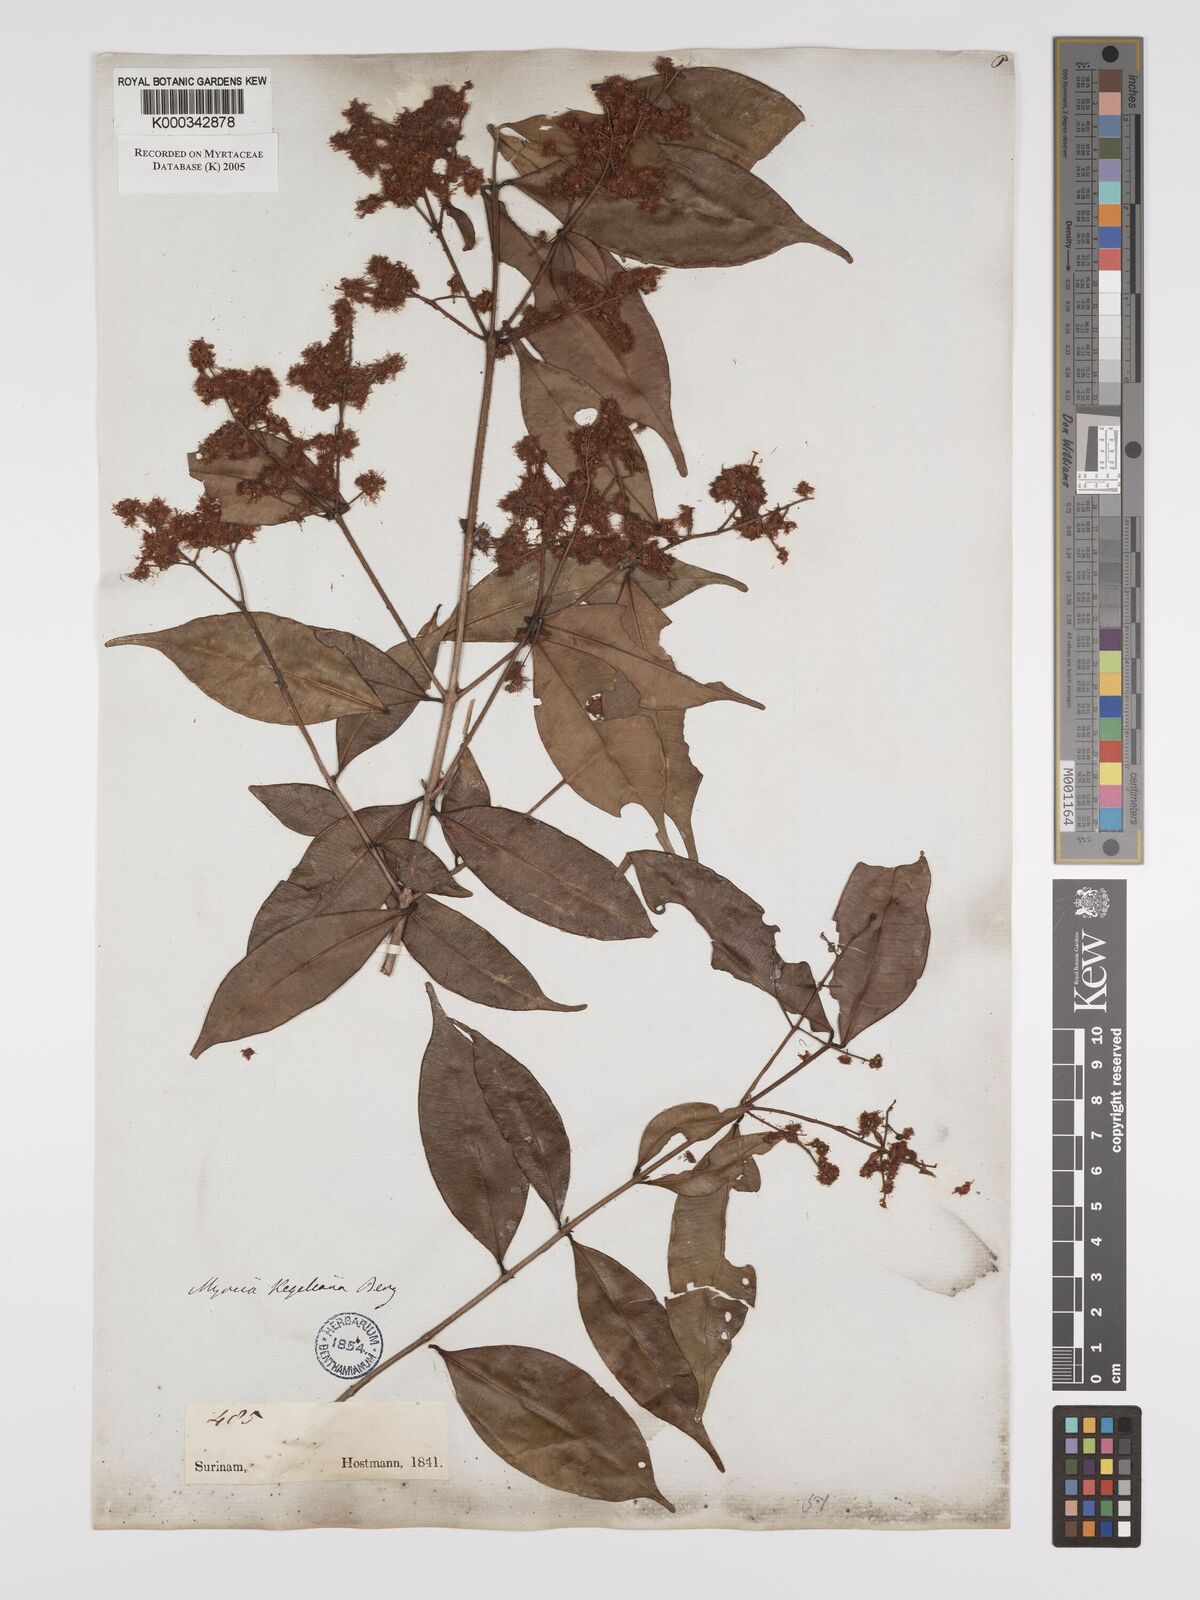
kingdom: Plantae
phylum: Tracheophyta
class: Magnoliopsida
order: Myrtales
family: Myrtaceae
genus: Myrcia
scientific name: Myrcia splendens
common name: Surinam cherry
